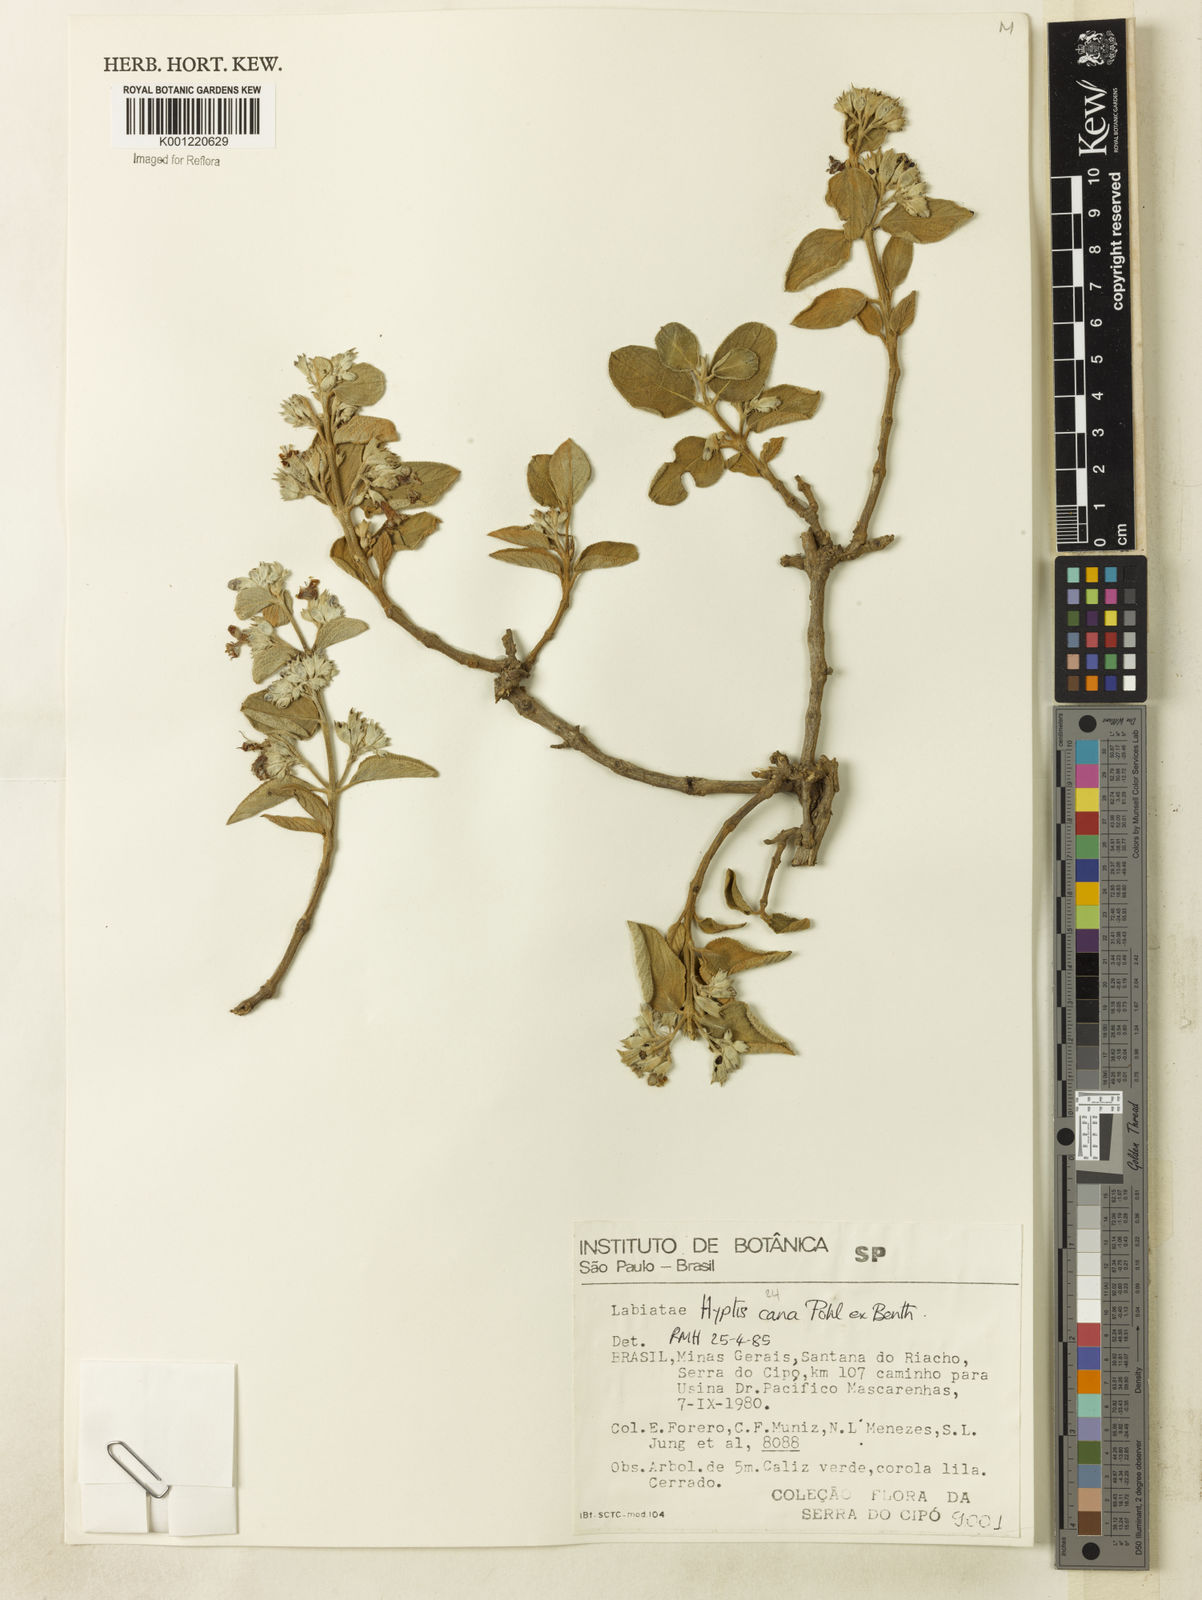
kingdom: Plantae
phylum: Tracheophyta
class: Magnoliopsida
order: Lamiales
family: Lamiaceae
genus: Hyptidendron
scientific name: Hyptidendron canum
